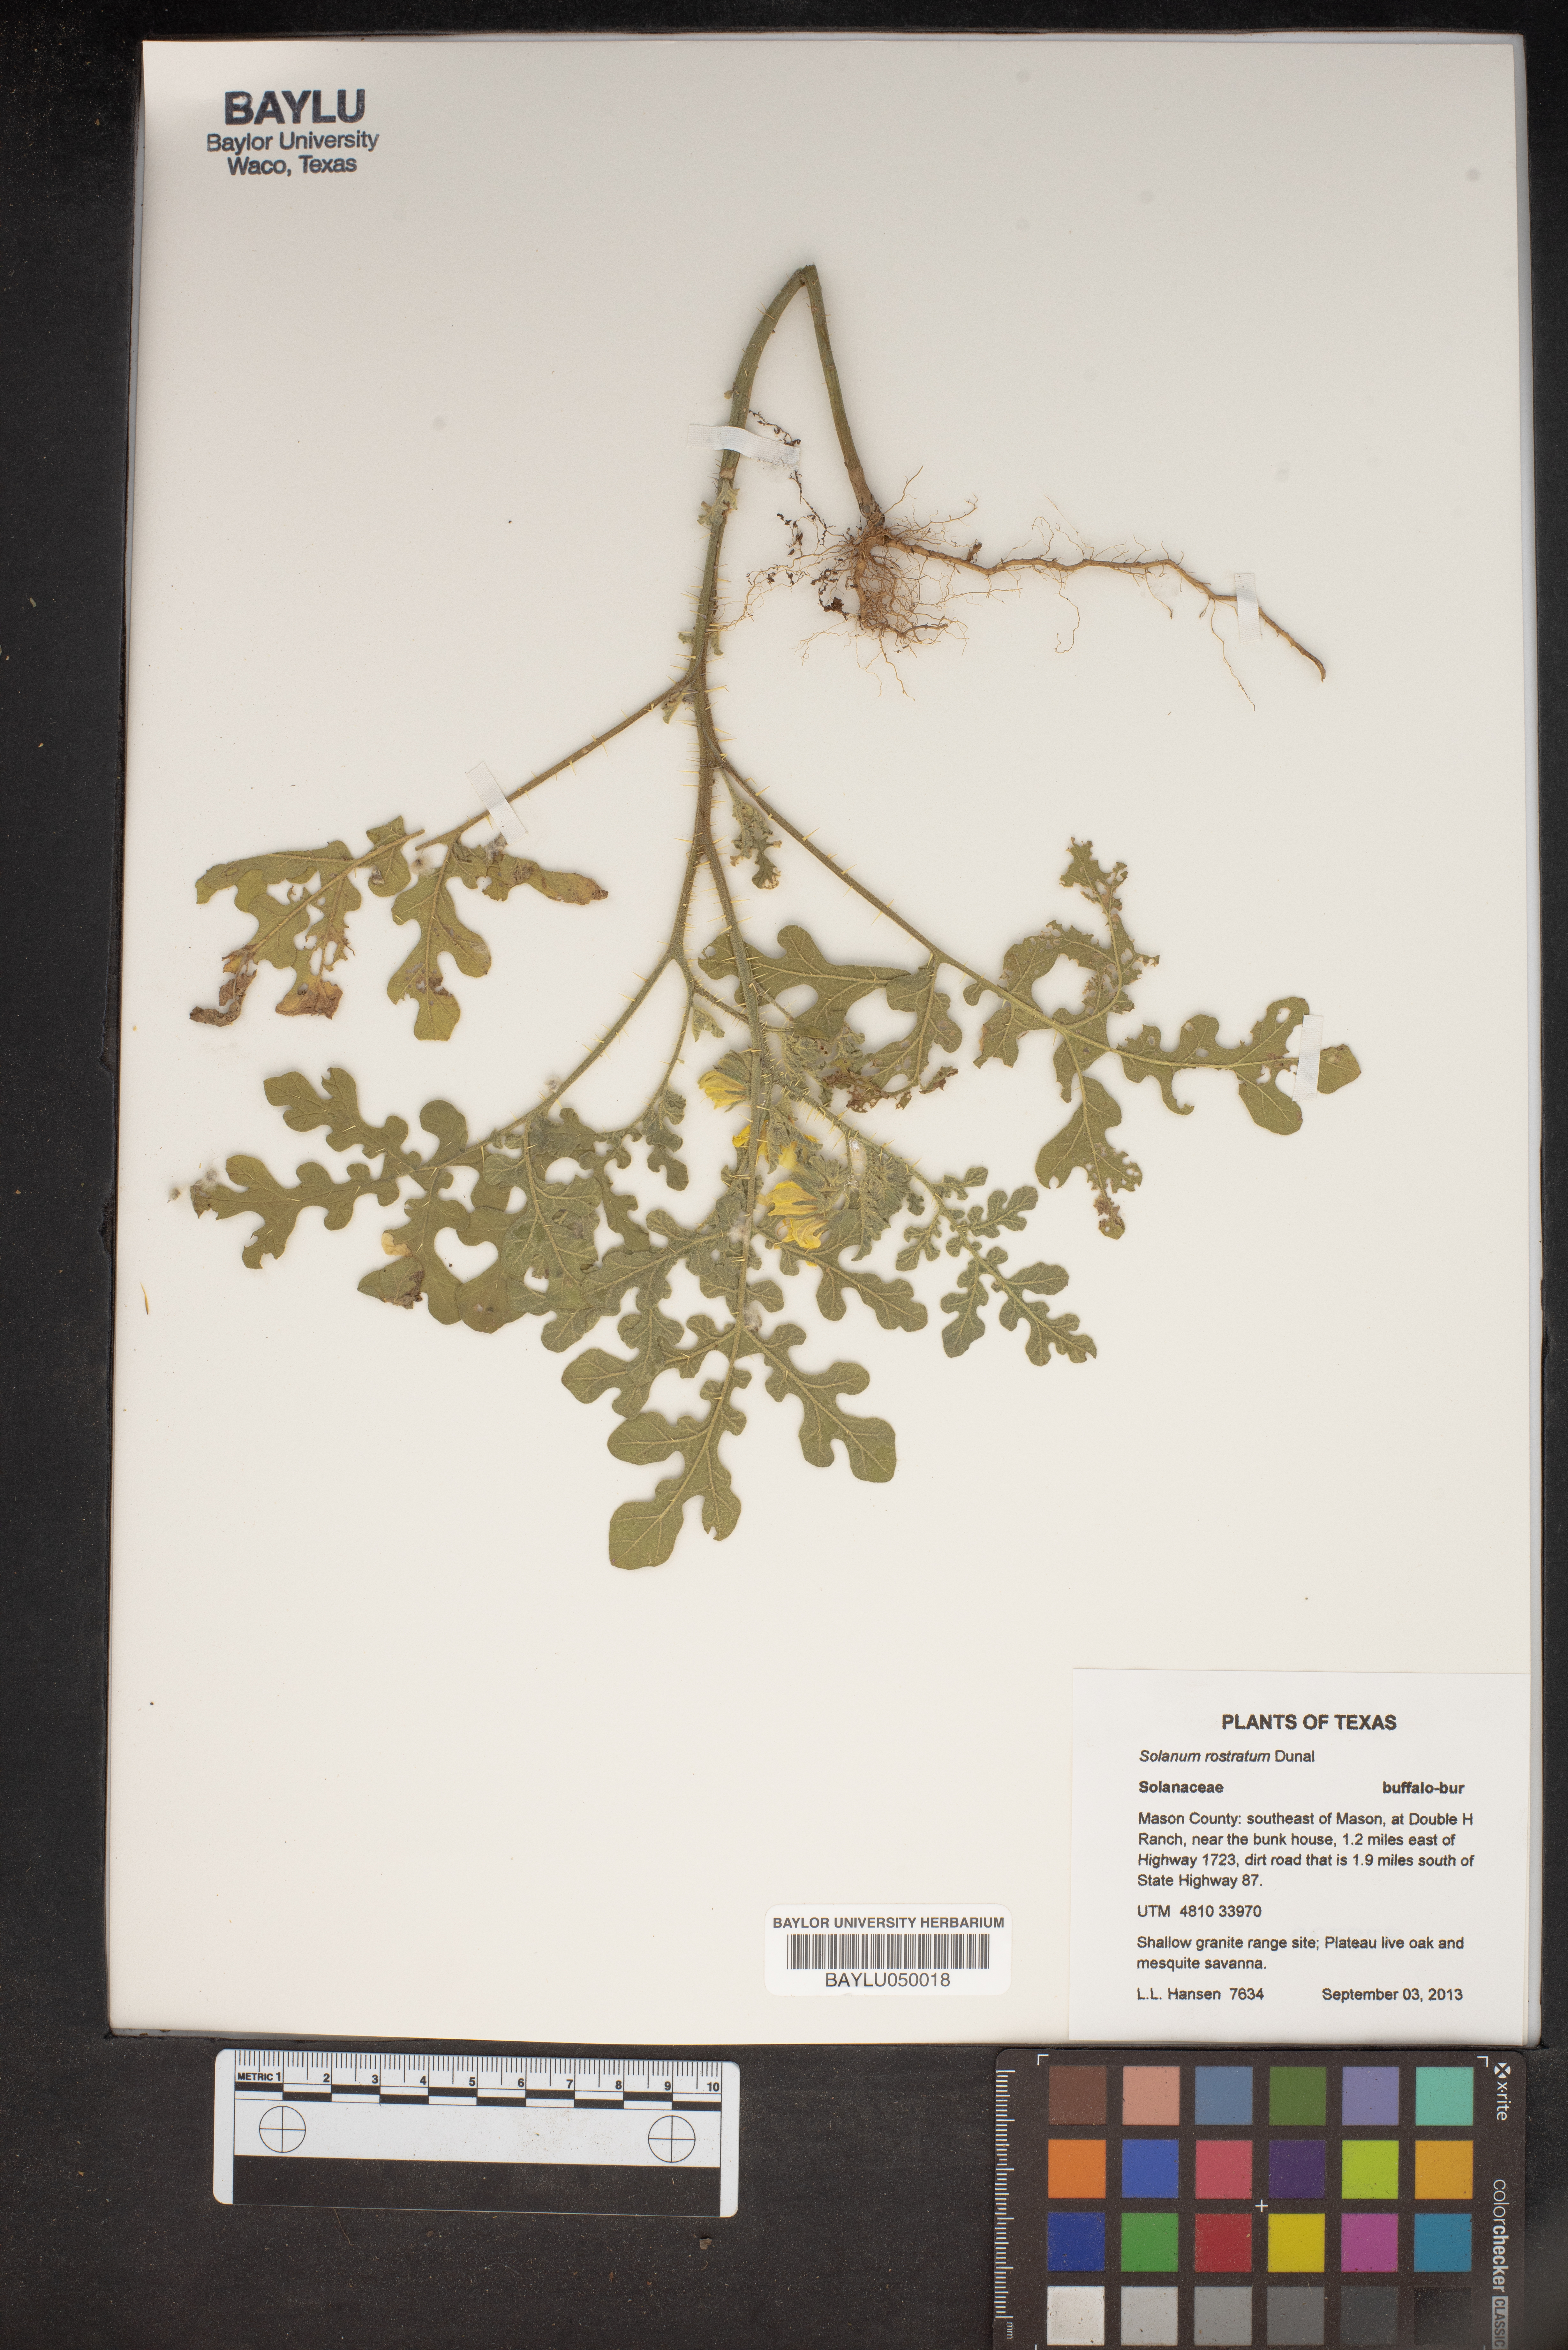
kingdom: Plantae
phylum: Tracheophyta
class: Magnoliopsida
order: Solanales
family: Solanaceae
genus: Solanum
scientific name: Solanum angustifolium
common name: Buffalobur nightshade
